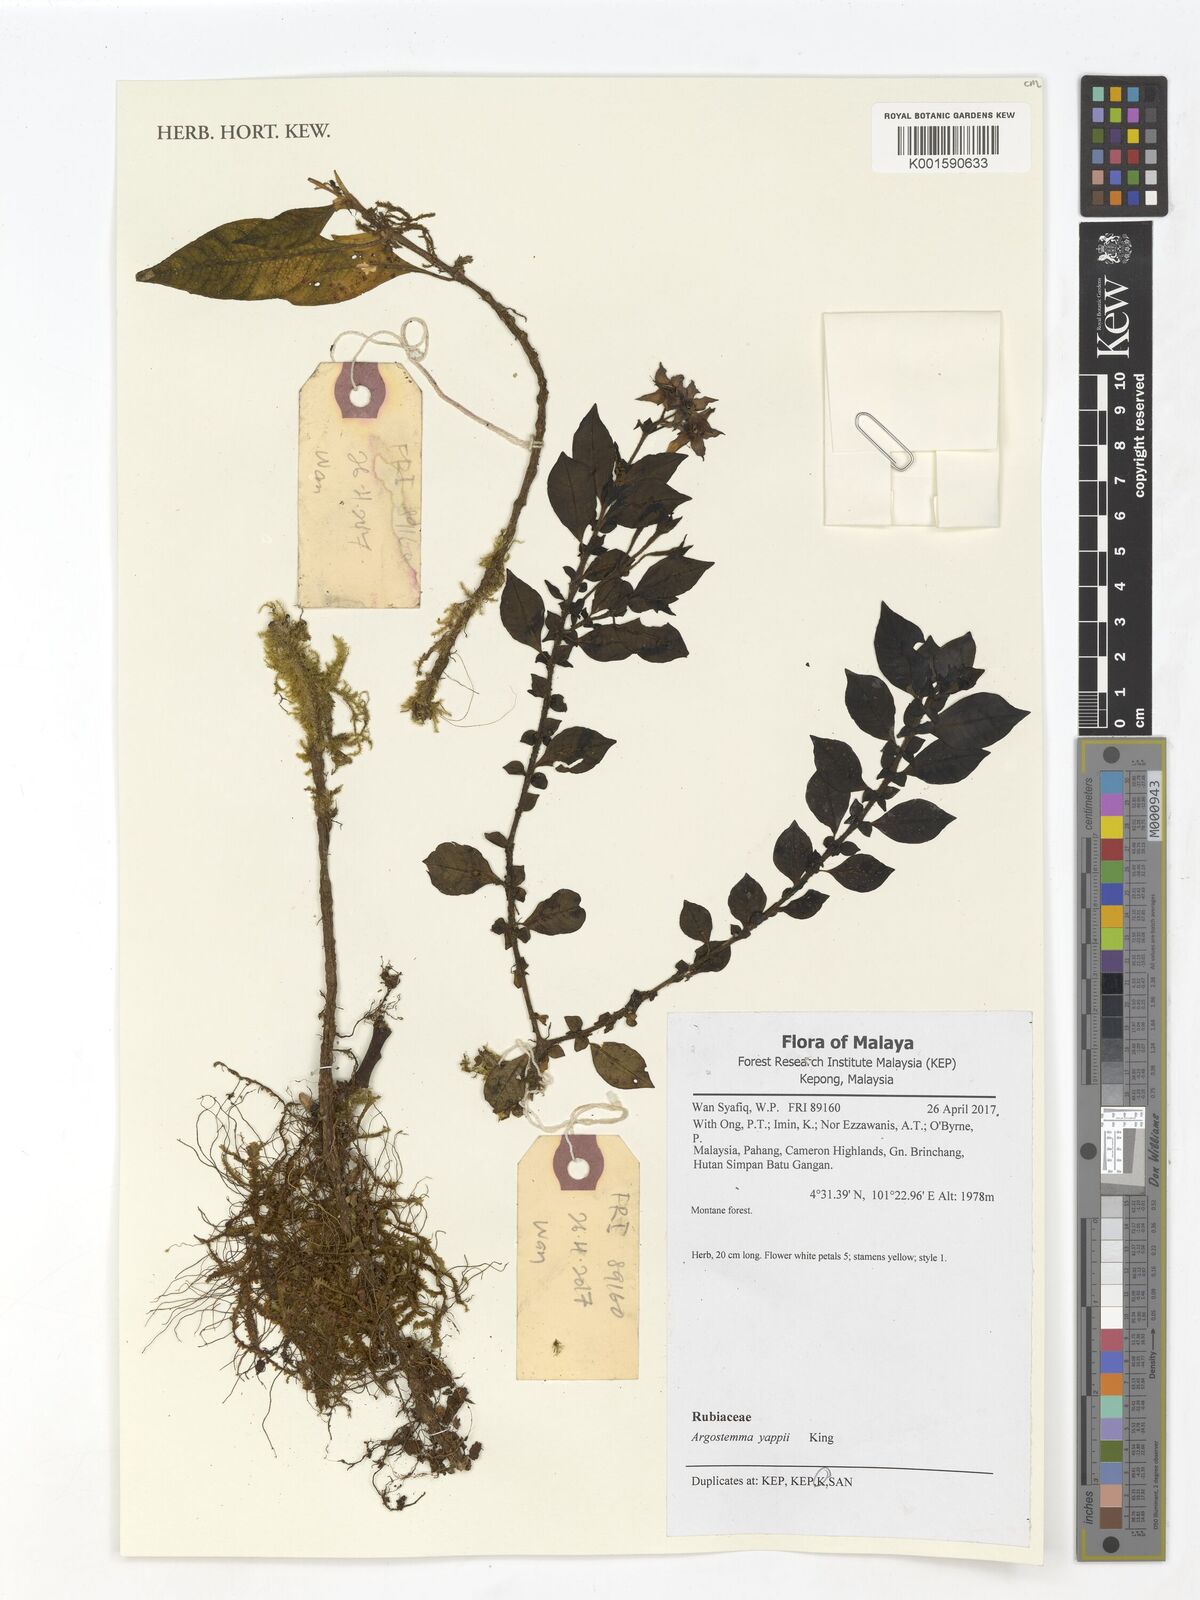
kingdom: Plantae
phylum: Tracheophyta
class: Magnoliopsida
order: Gentianales
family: Rubiaceae
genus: Argostemma
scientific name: Argostemma yappii
